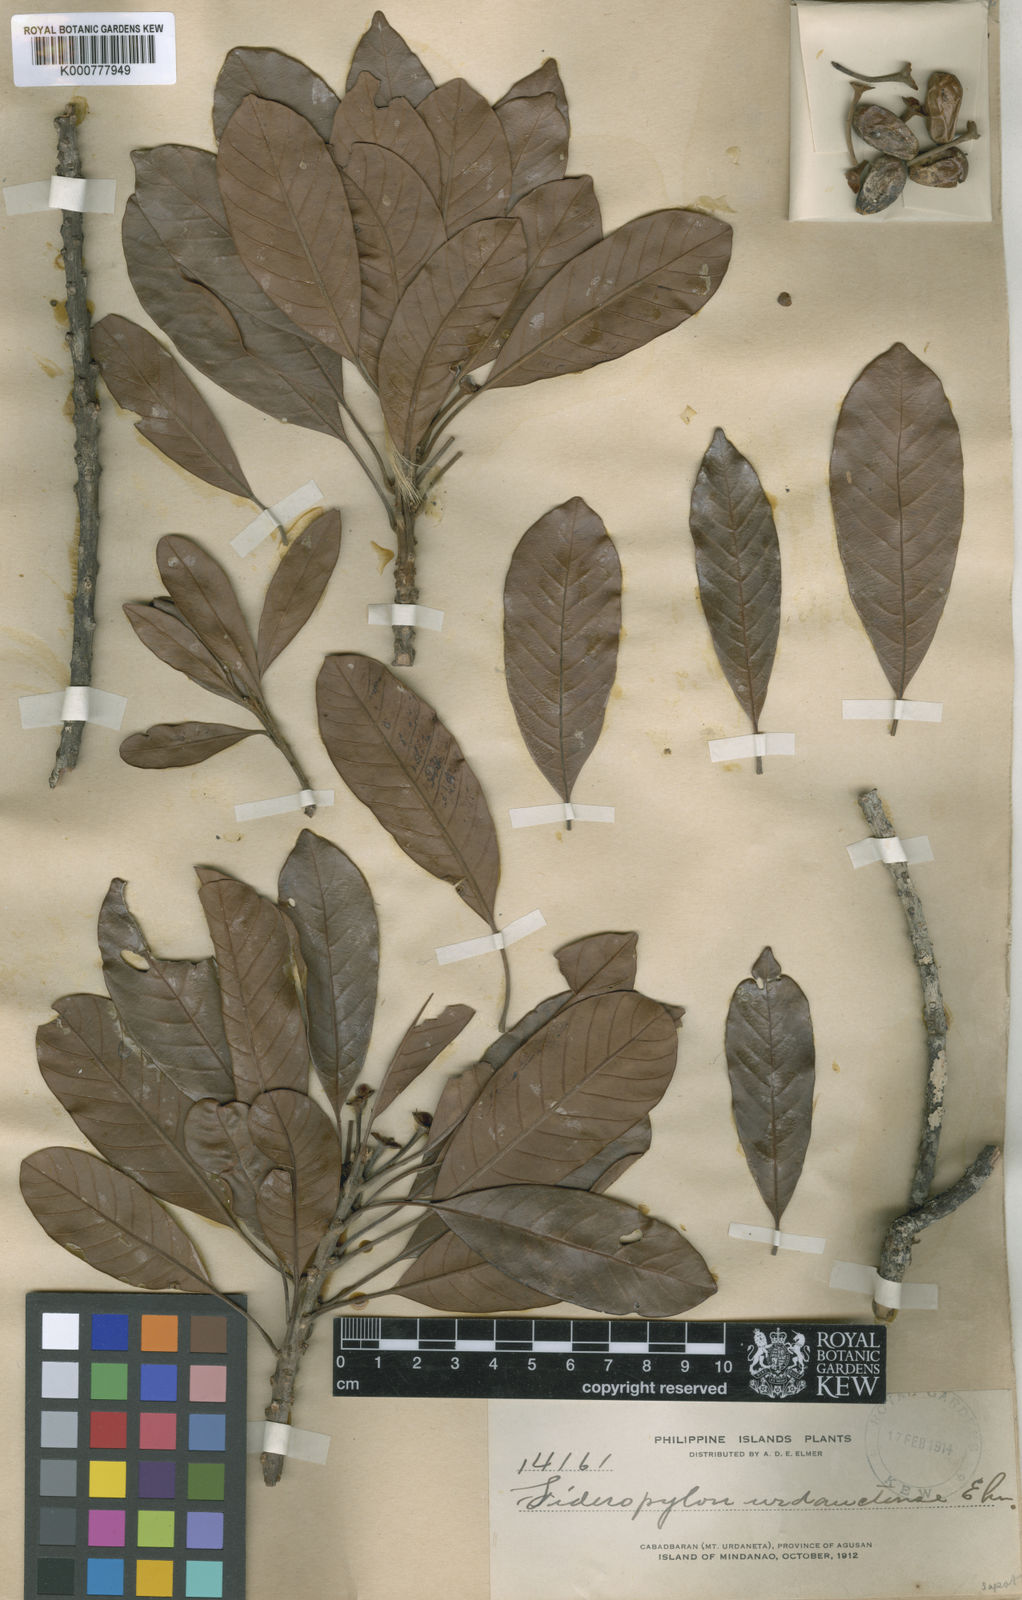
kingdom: Plantae
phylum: Tracheophyta
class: Magnoliopsida
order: Ericales
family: Sapotaceae
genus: Pleioluma
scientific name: Pleioluma firma
